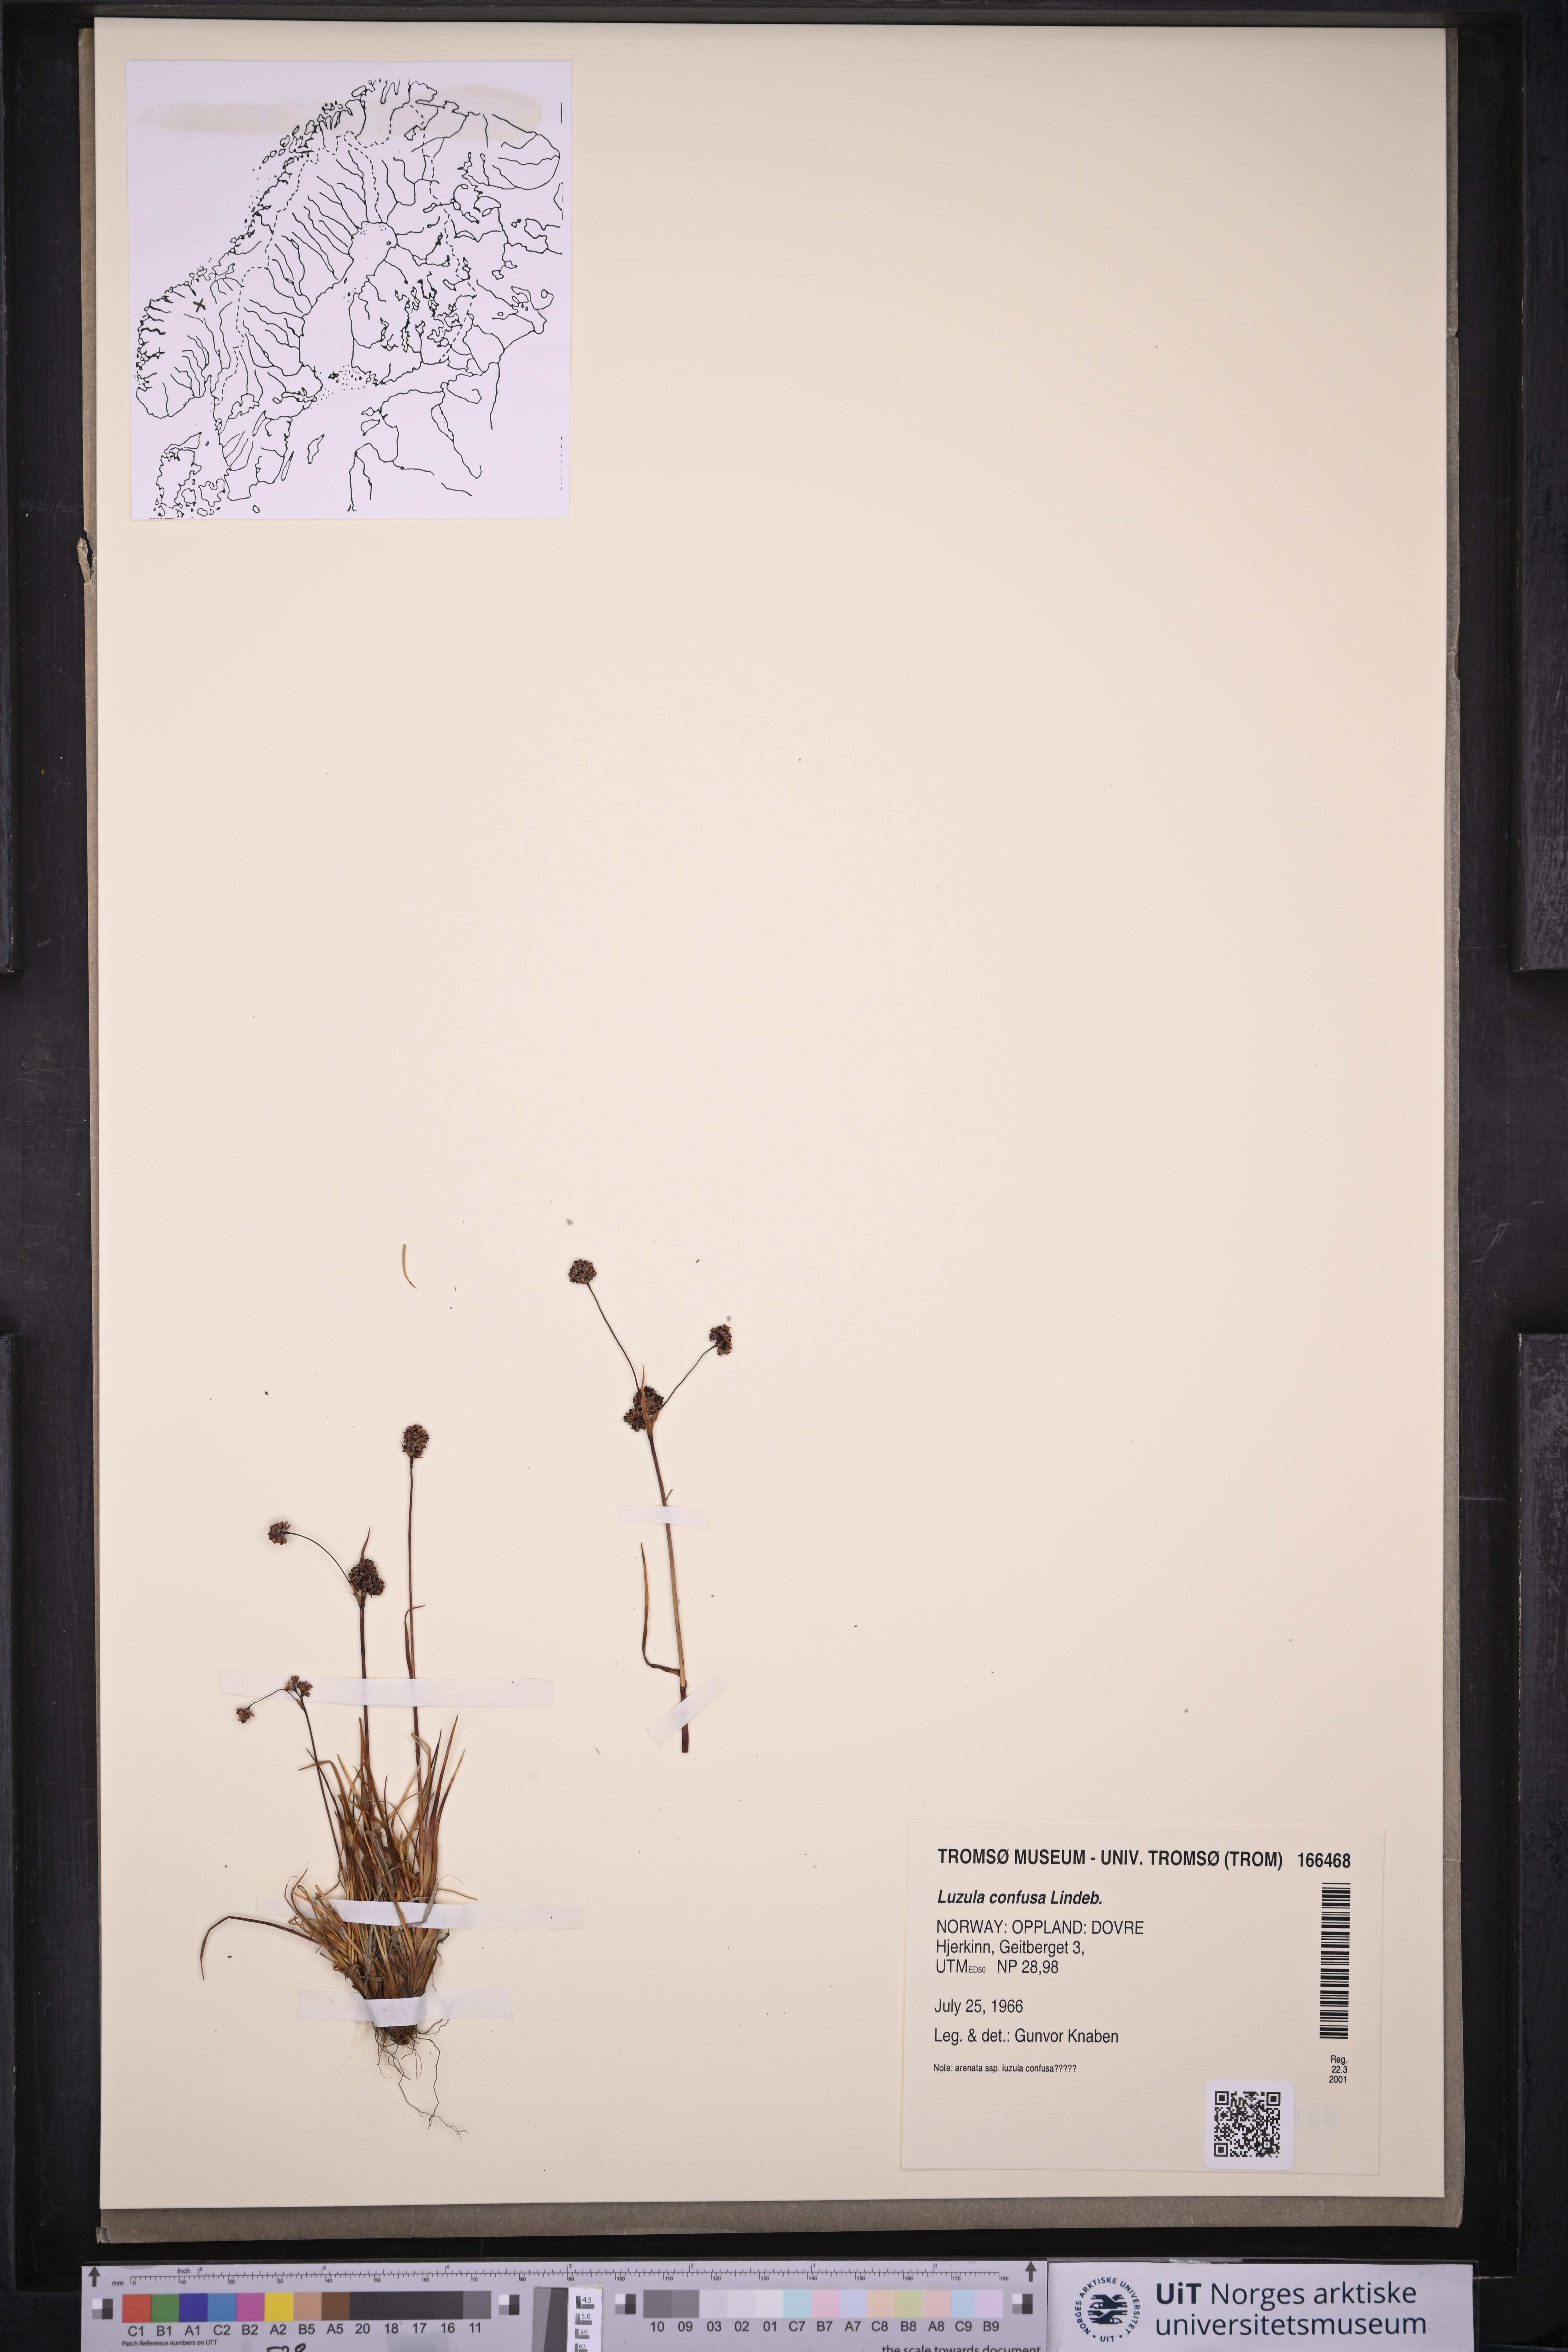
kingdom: Plantae
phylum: Tracheophyta
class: Liliopsida
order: Poales
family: Juncaceae
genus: Luzula
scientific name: Luzula confusa
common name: Northern wood rush
